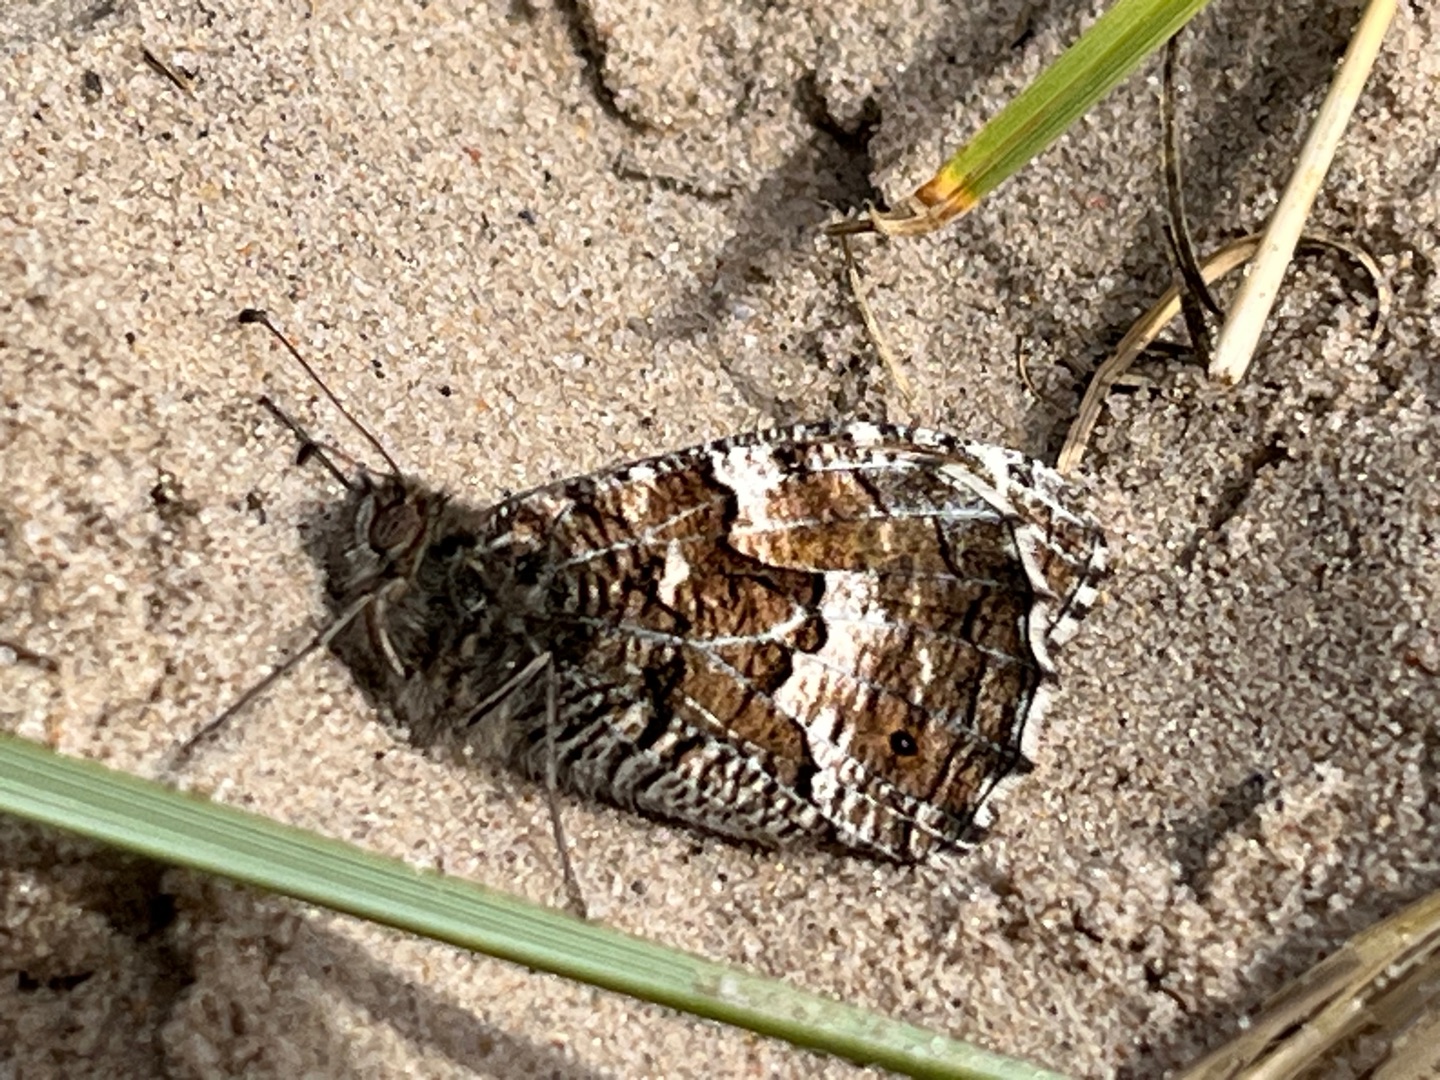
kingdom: Animalia
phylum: Arthropoda
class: Insecta
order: Lepidoptera
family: Nymphalidae
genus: Hipparchia
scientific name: Hipparchia semele
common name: Sandrandøje
